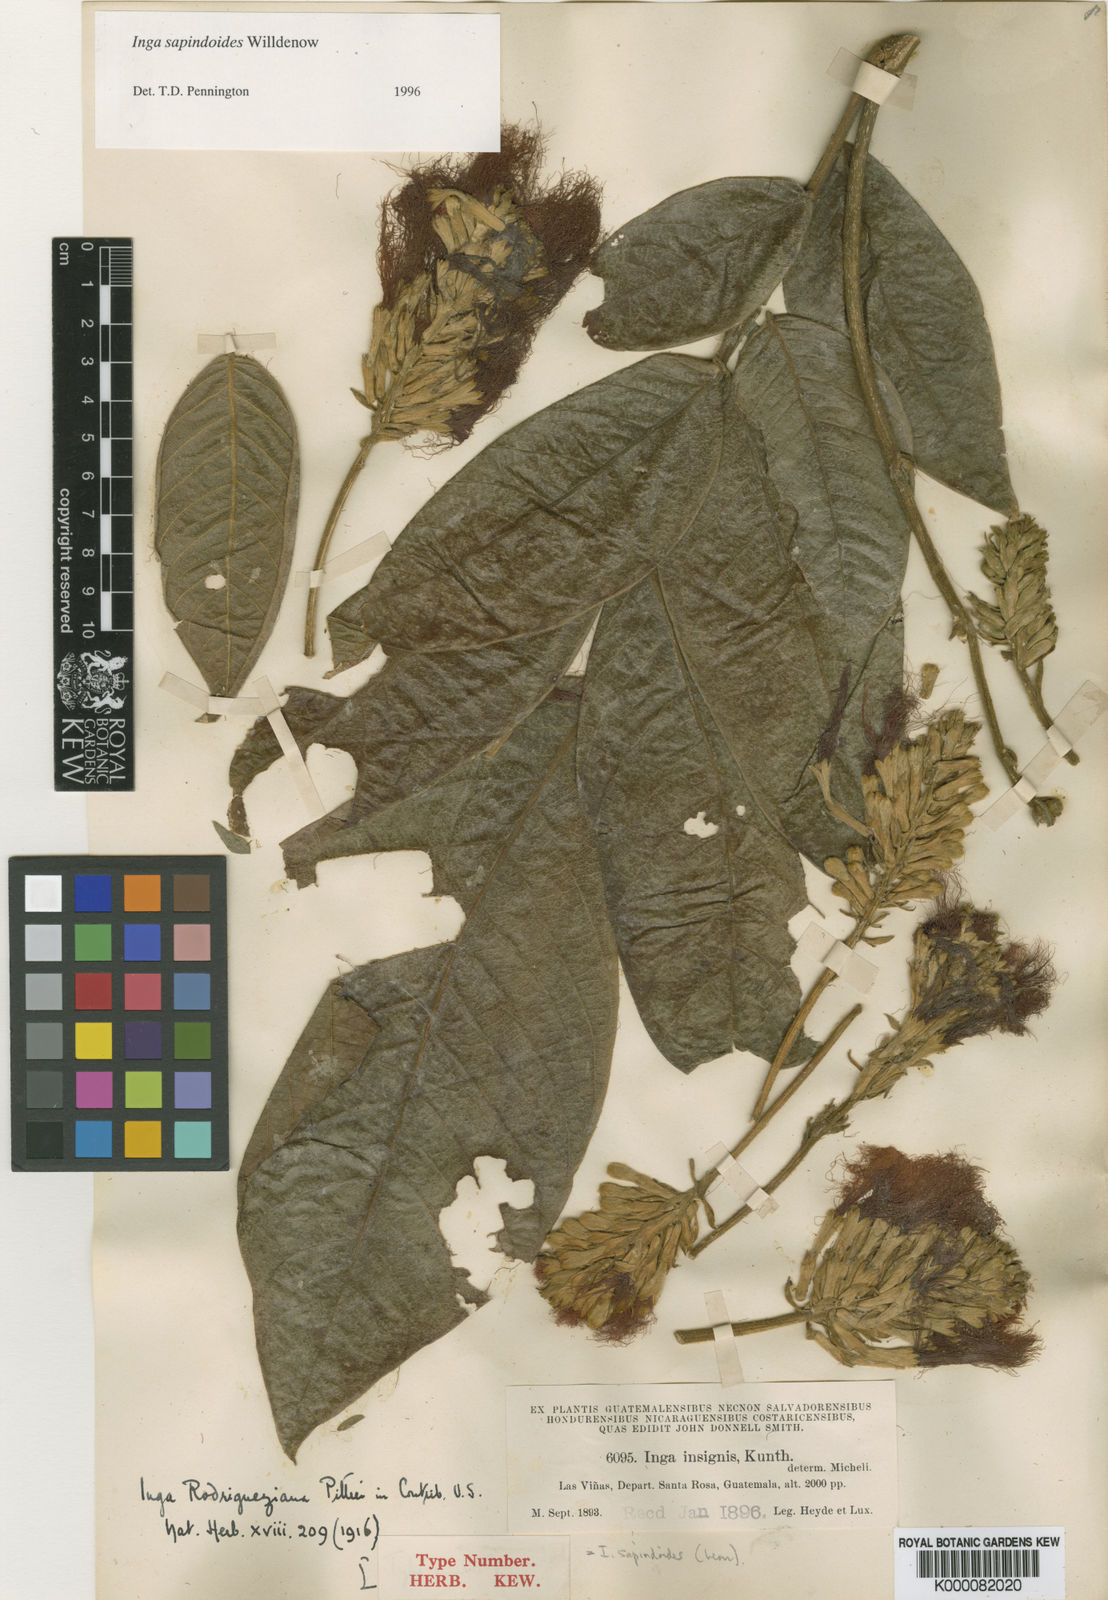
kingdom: Plantae
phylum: Tracheophyta
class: Magnoliopsida
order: Fabales
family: Fabaceae
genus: Inga
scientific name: Inga
